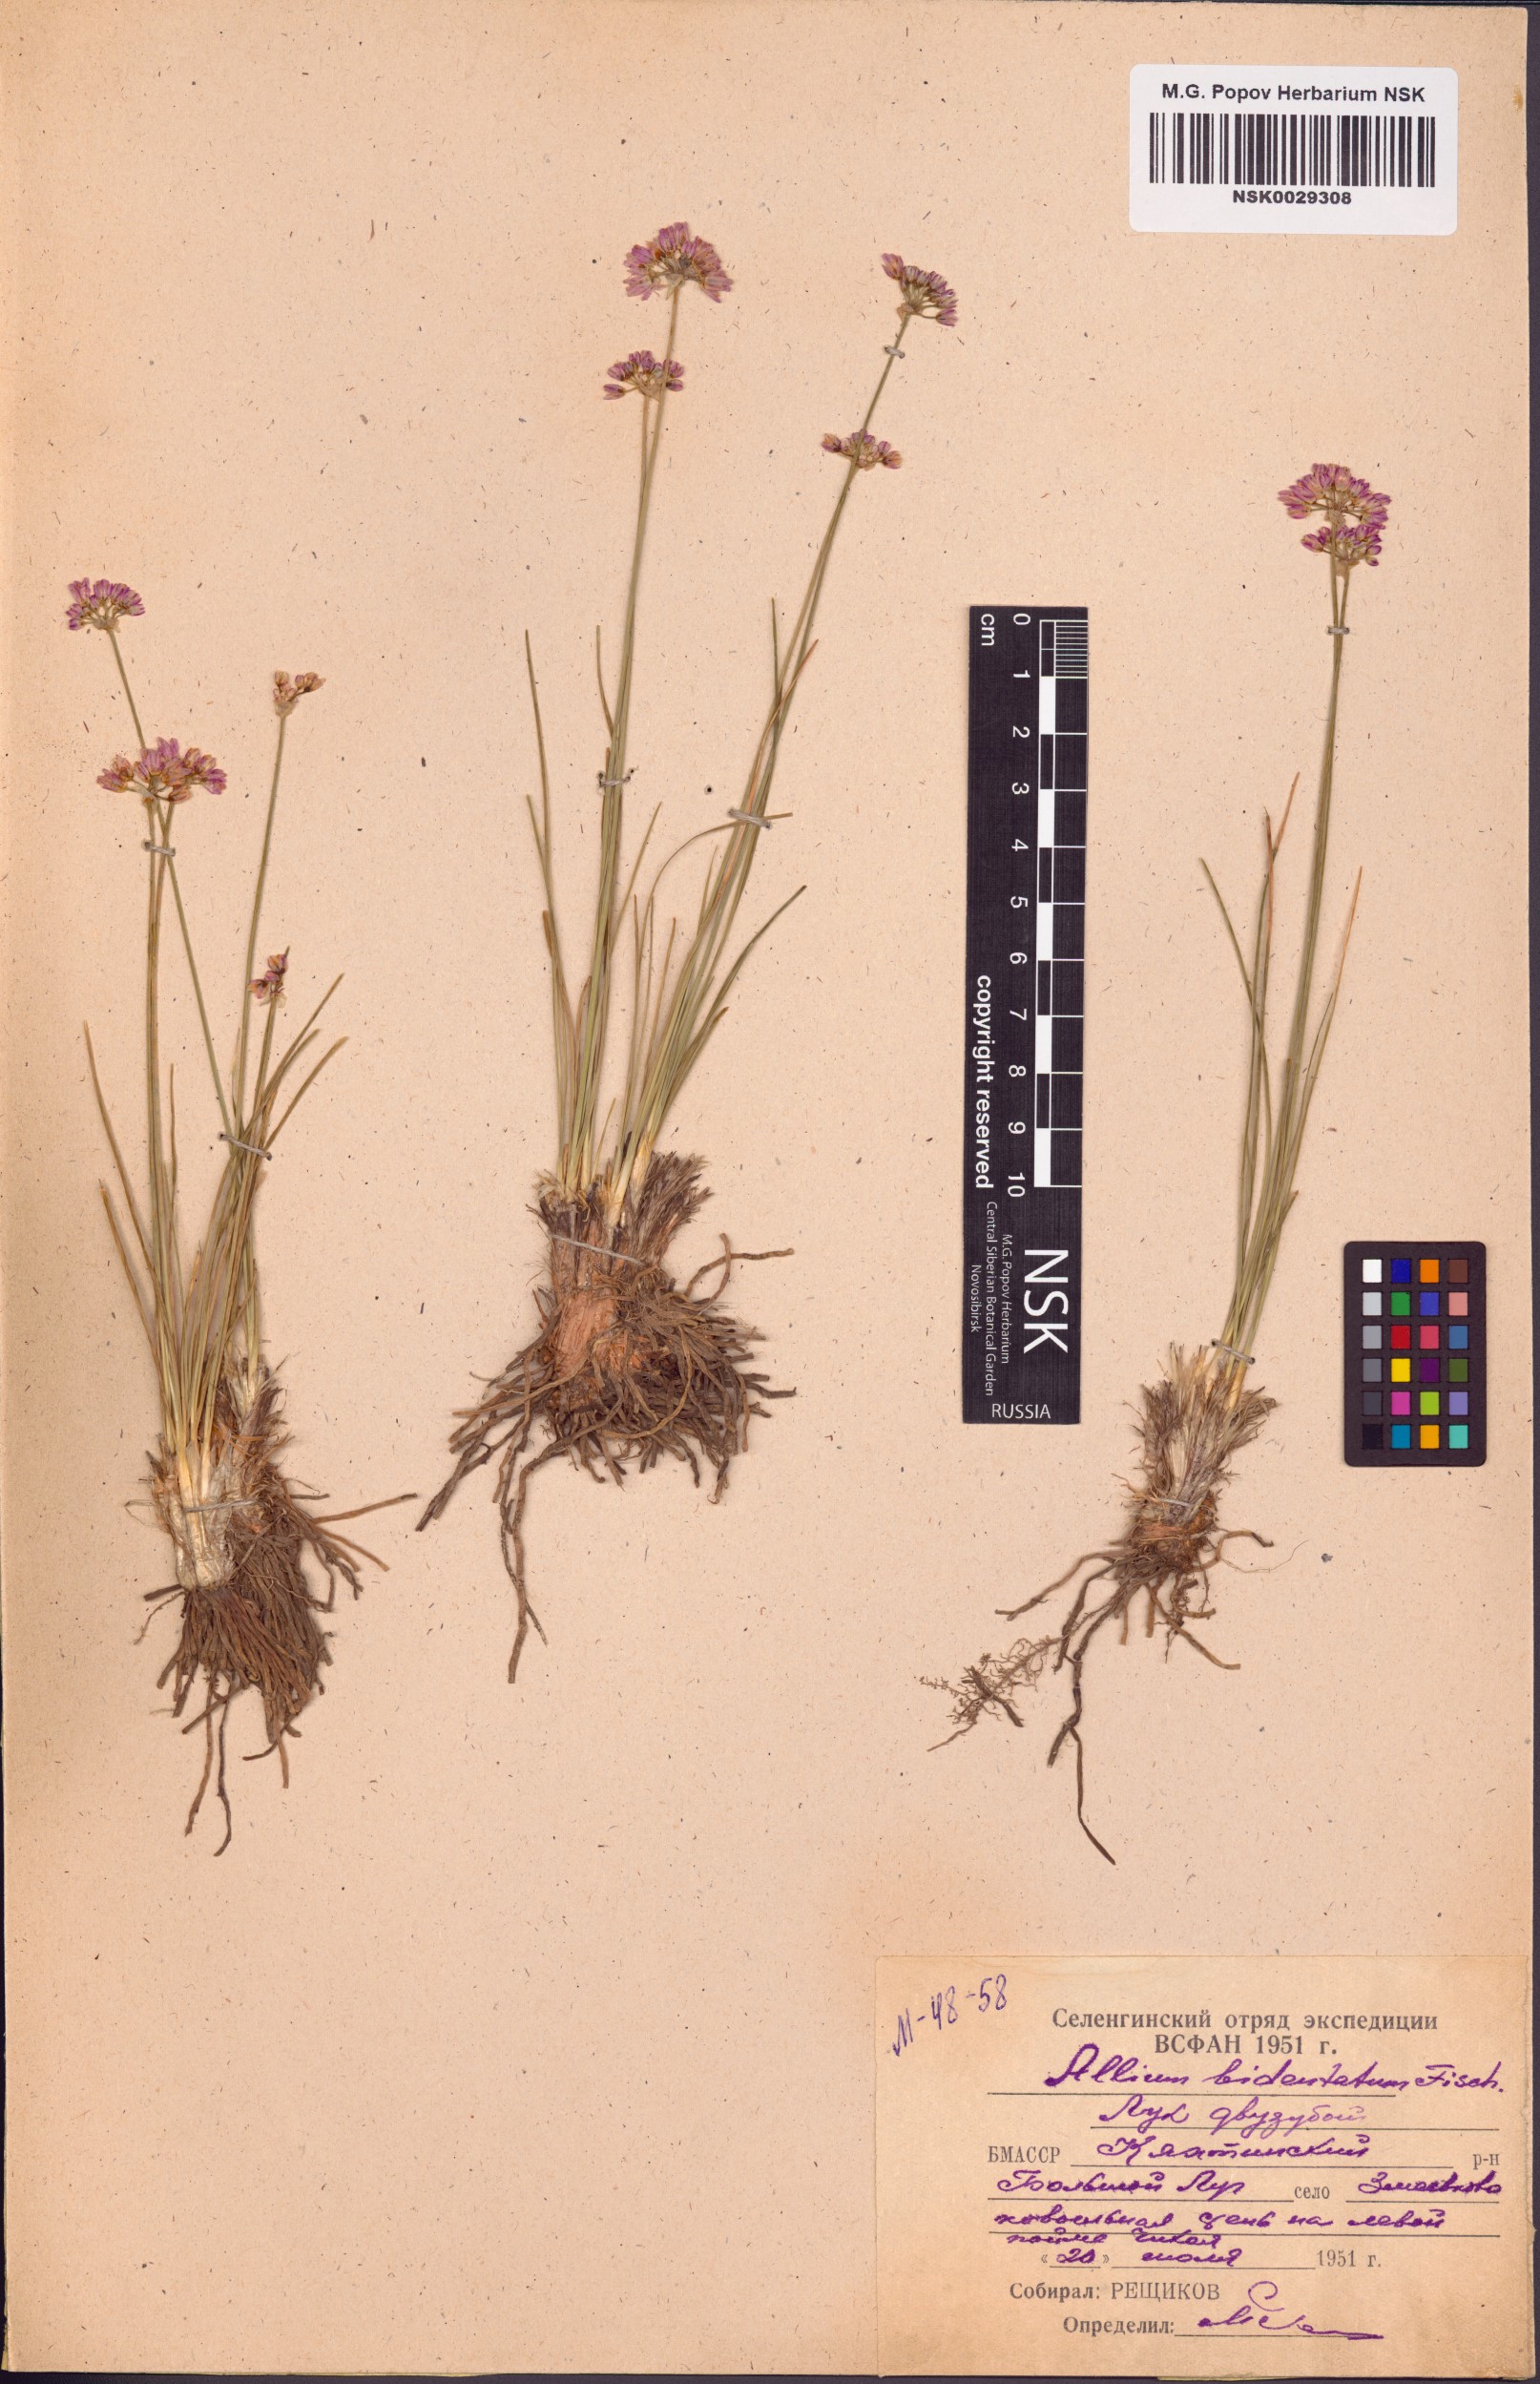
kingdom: Plantae
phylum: Tracheophyta
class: Liliopsida
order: Asparagales
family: Amaryllidaceae
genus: Allium
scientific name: Allium bidentatum
